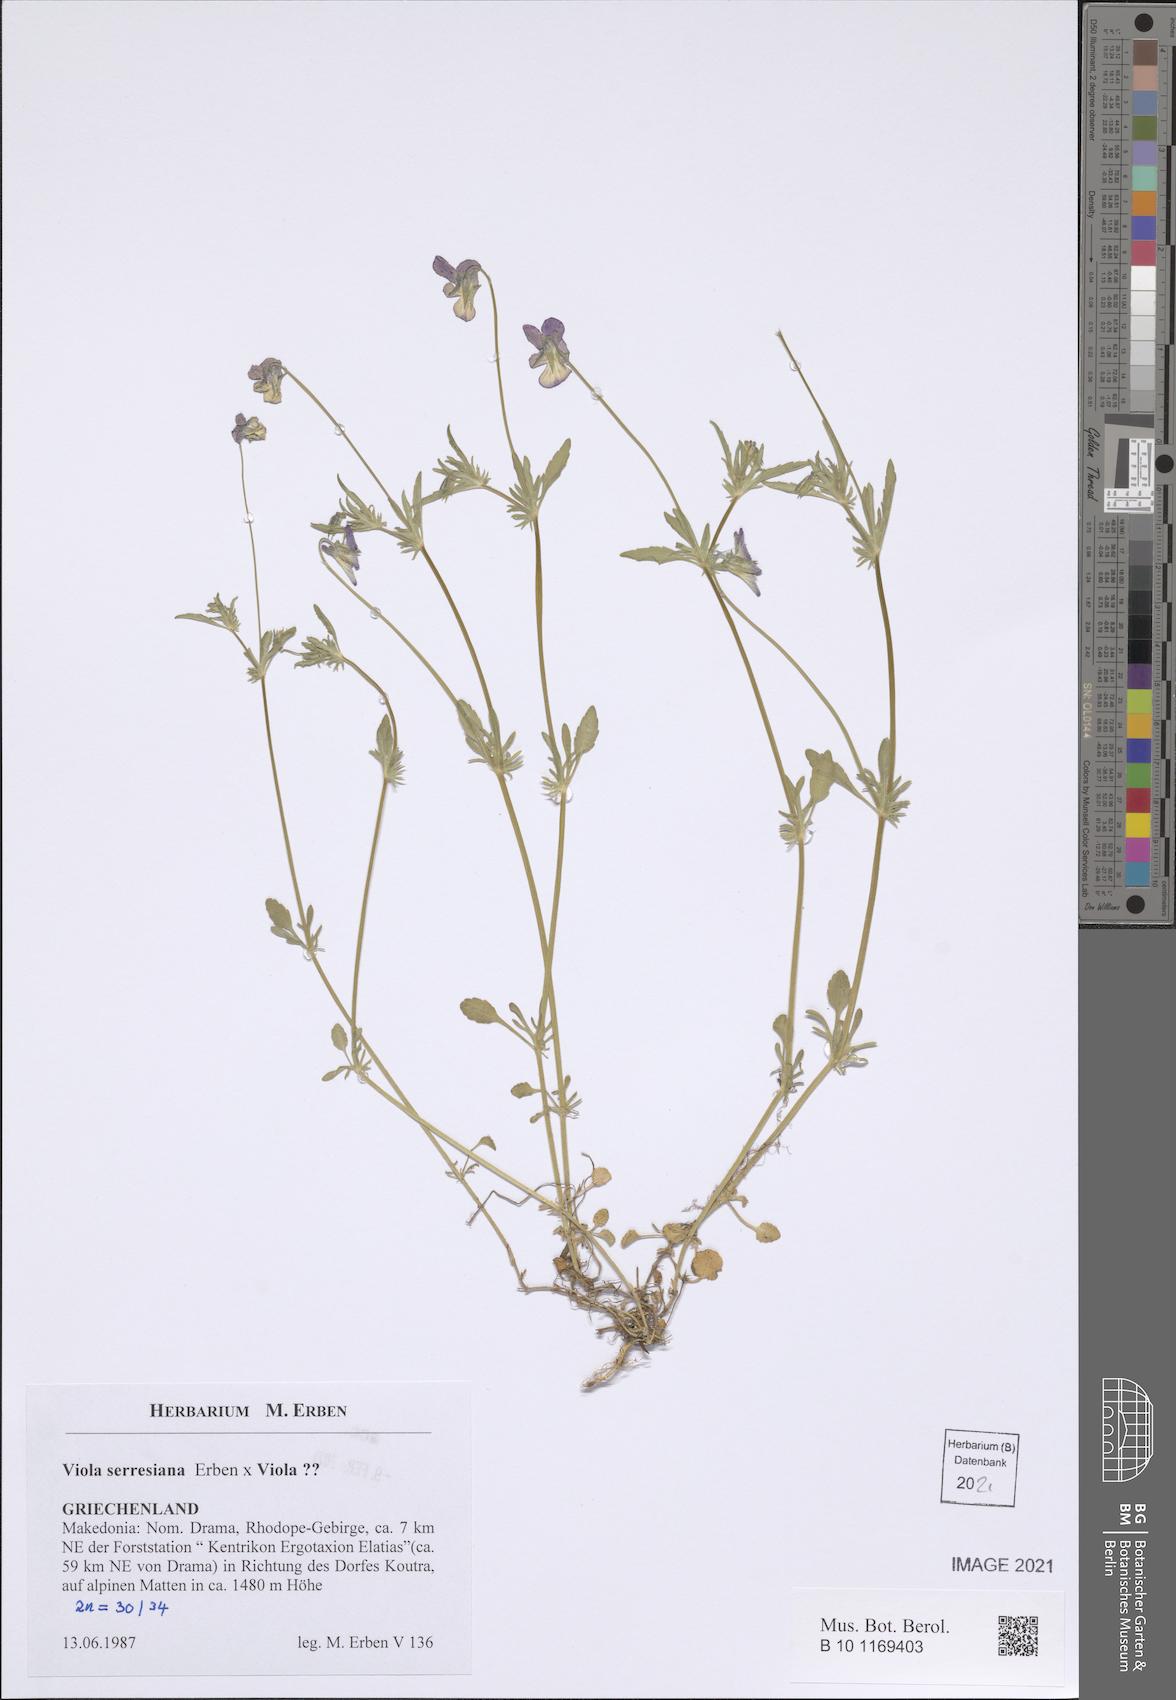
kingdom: Plantae
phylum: Tracheophyta
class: Magnoliopsida
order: Malpighiales
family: Violaceae
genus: Viola
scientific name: Viola serresiana
